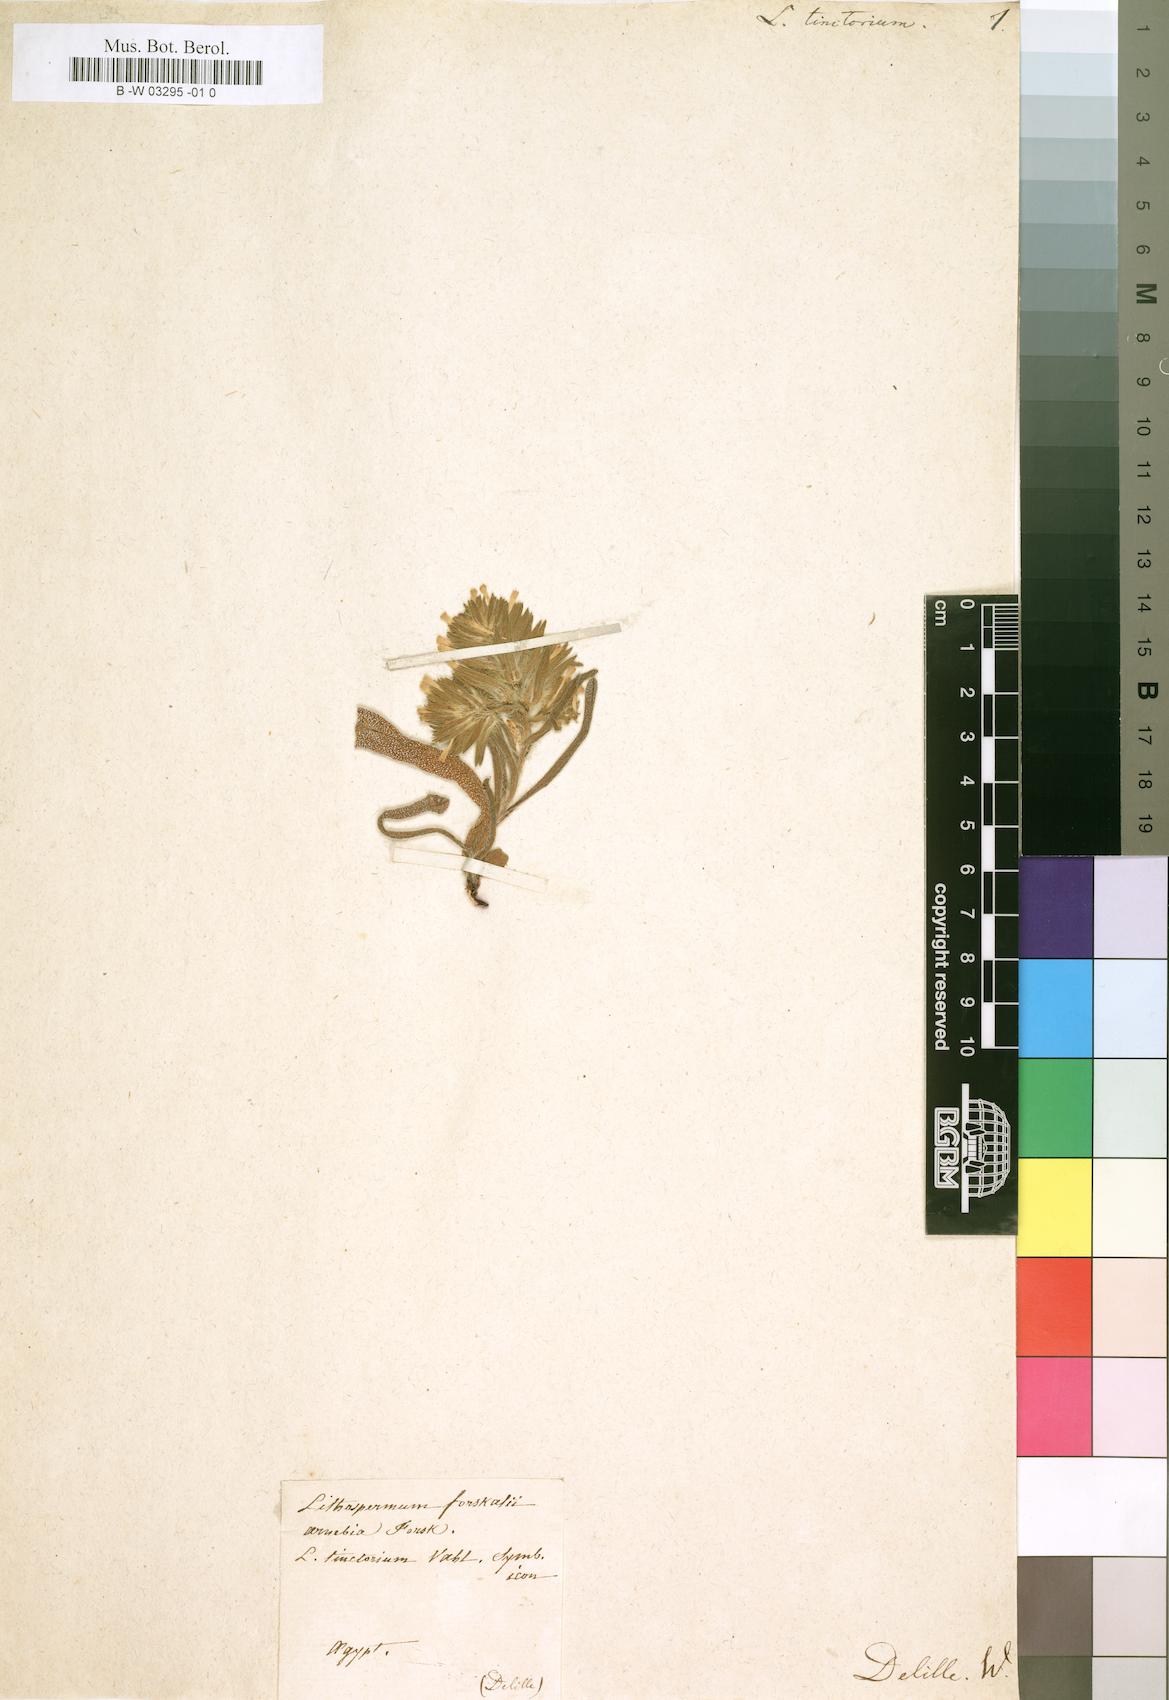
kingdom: Plantae
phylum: Tracheophyta
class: Magnoliopsida
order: Boraginales
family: Boraginaceae
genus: Lithospermum
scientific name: Lithospermum tinctorium
